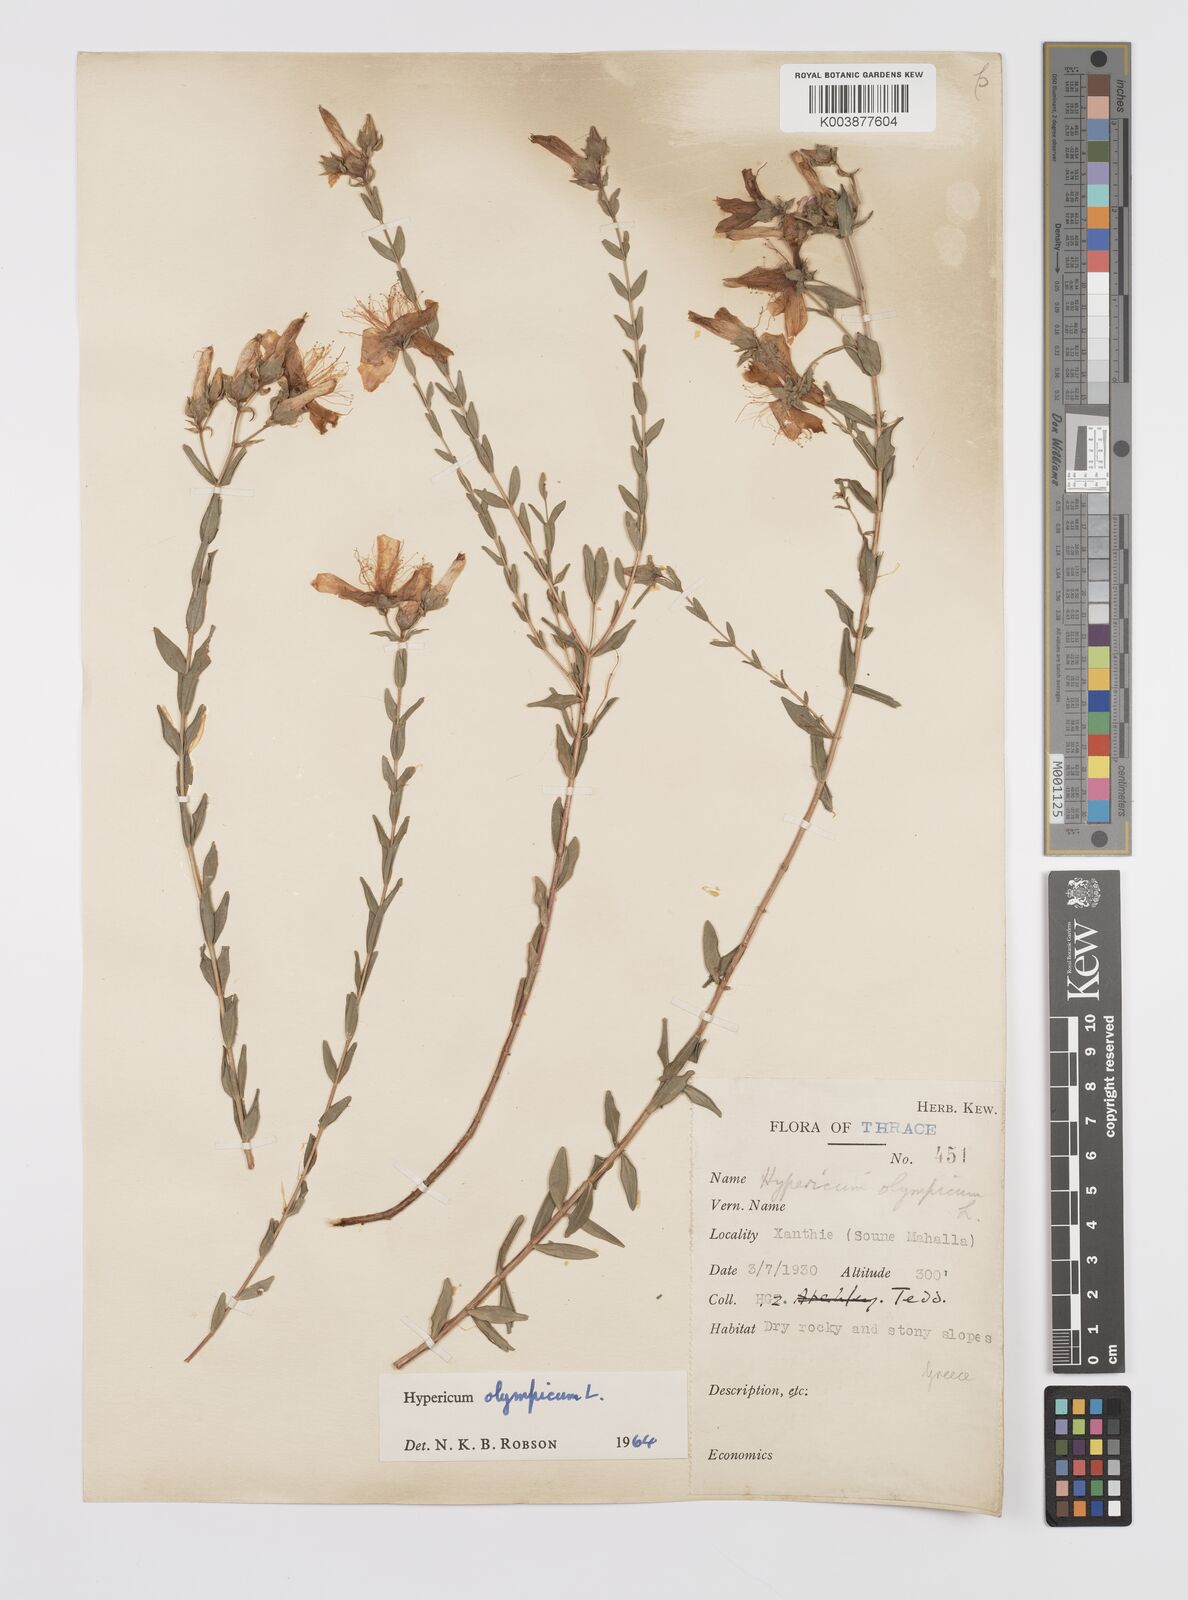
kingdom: Plantae
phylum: Tracheophyta
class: Magnoliopsida
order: Malpighiales
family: Hypericaceae
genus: Hypericum
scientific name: Hypericum olympicum
